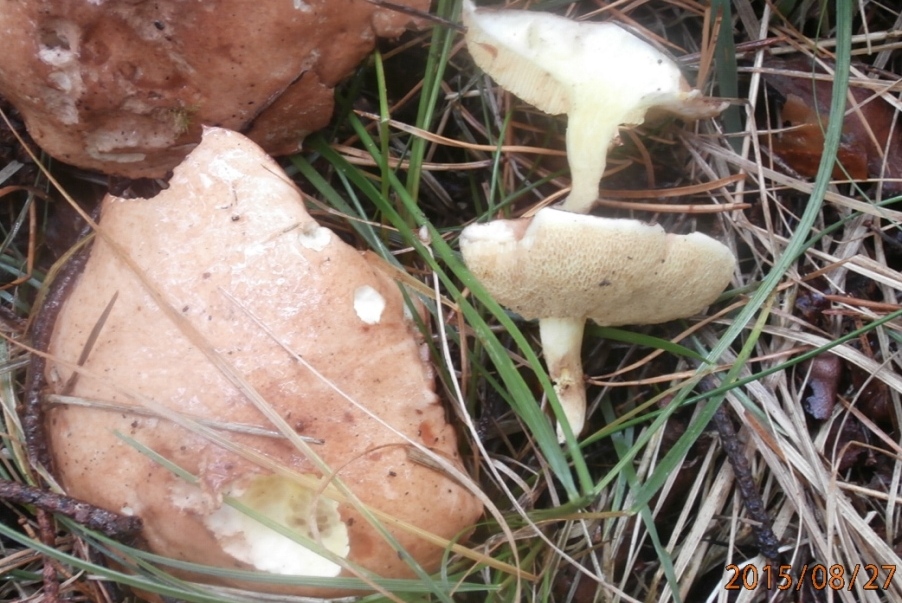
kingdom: Fungi
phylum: Basidiomycota
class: Agaricomycetes
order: Boletales
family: Suillaceae
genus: Suillus
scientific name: Suillus granulatus
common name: kornet slimrørhat
